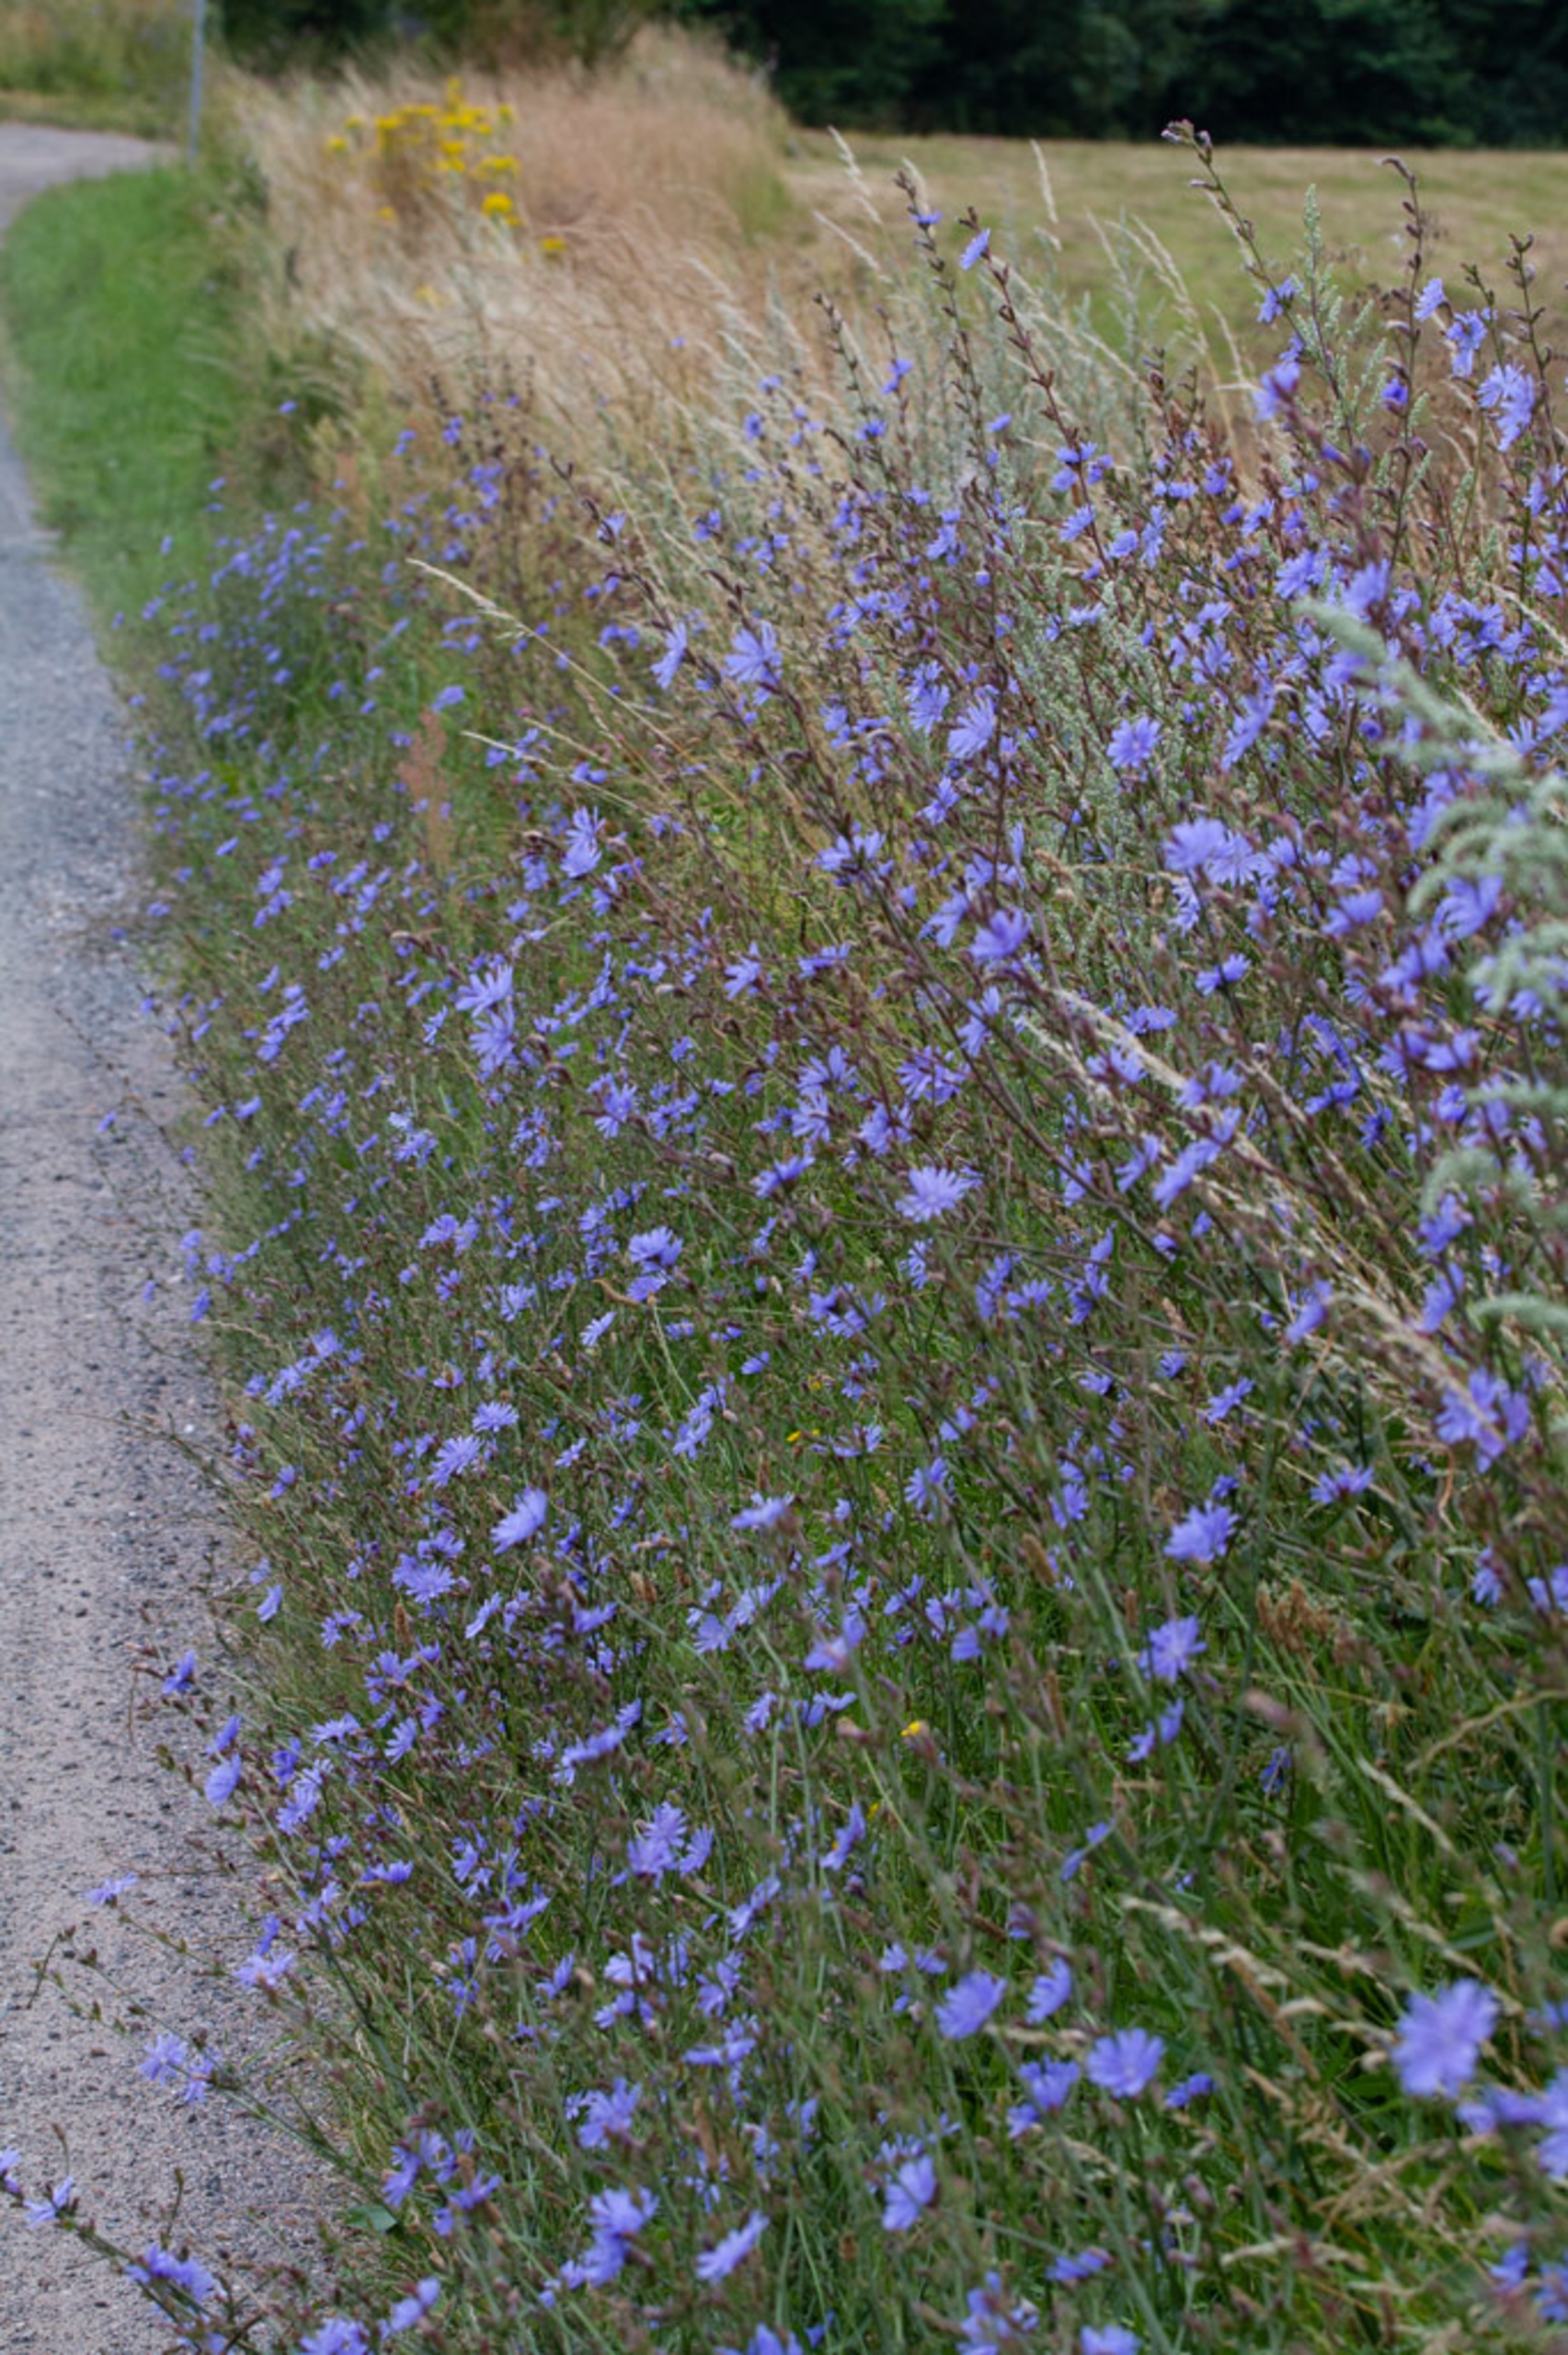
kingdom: Plantae
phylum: Tracheophyta
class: Magnoliopsida
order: Asterales
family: Asteraceae
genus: Cichorium
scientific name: Cichorium intybus
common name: Cikorie
